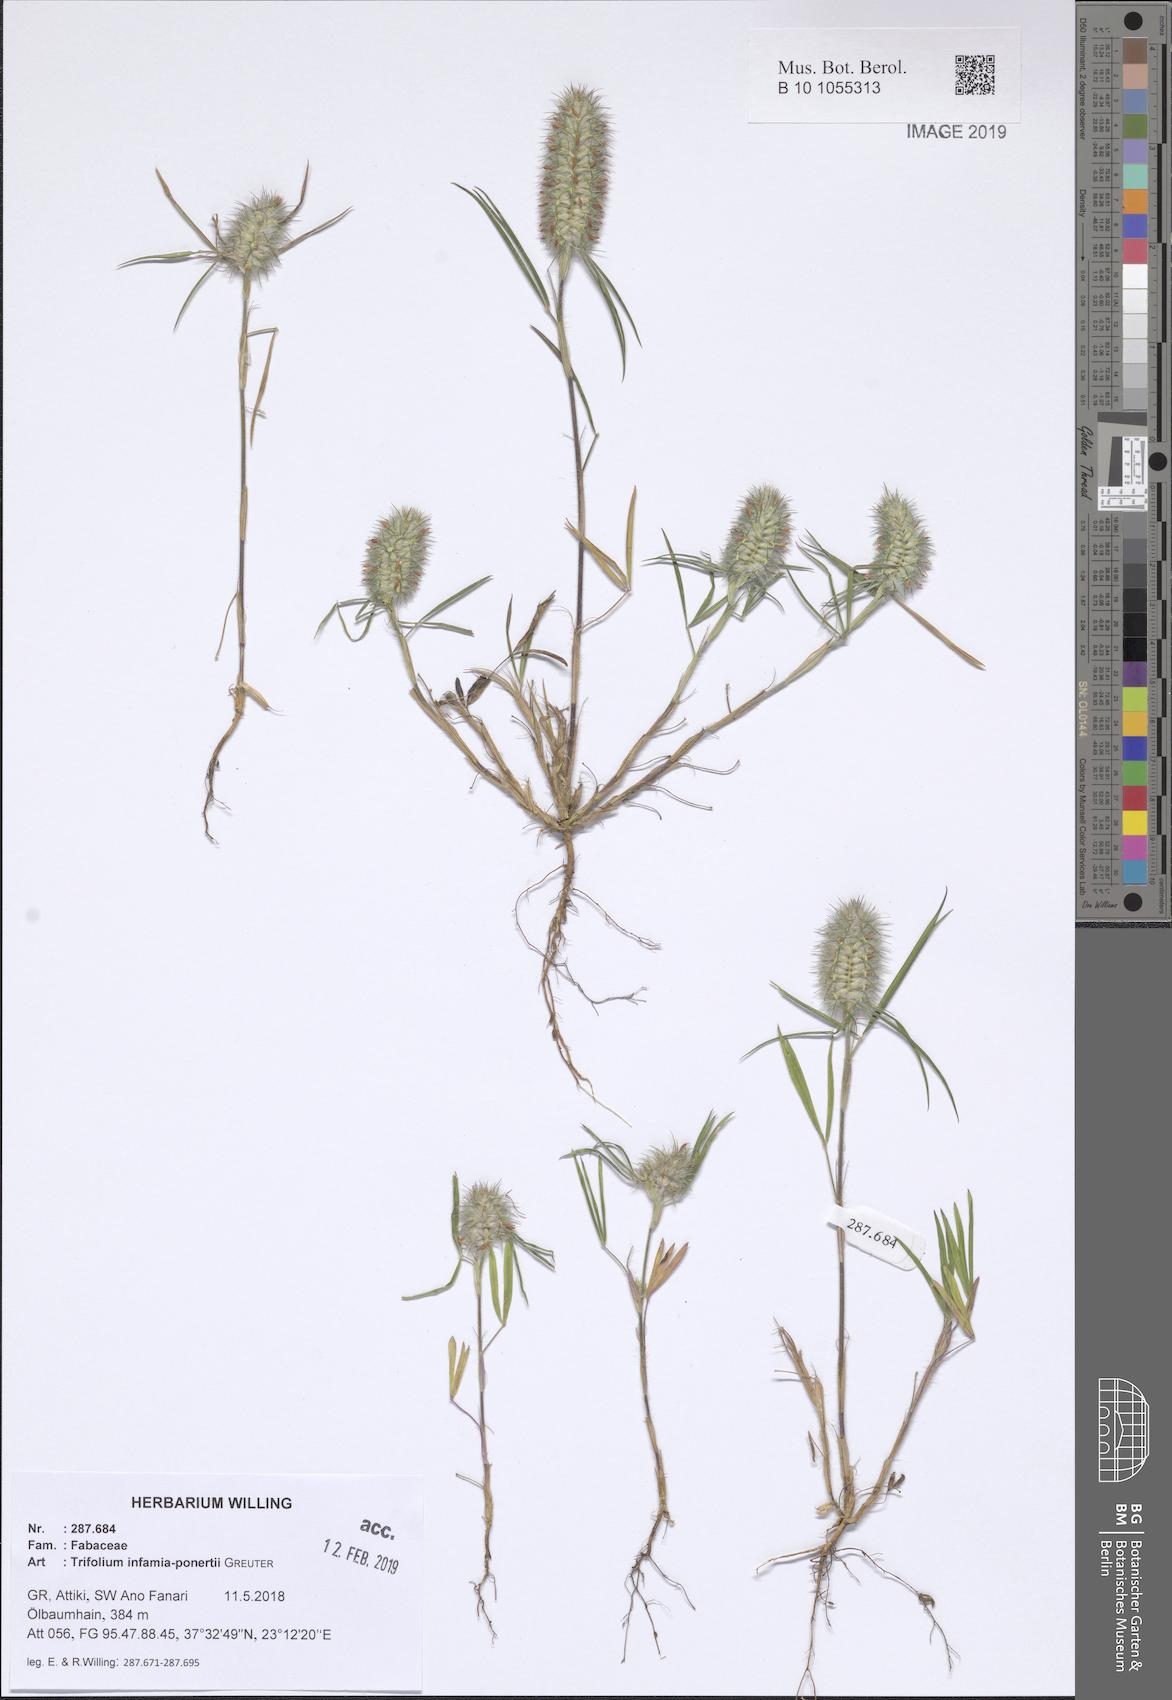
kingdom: Plantae
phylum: Tracheophyta
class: Magnoliopsida
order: Fabales
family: Fabaceae
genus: Trifolium
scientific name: Trifolium infamia-ponertii
